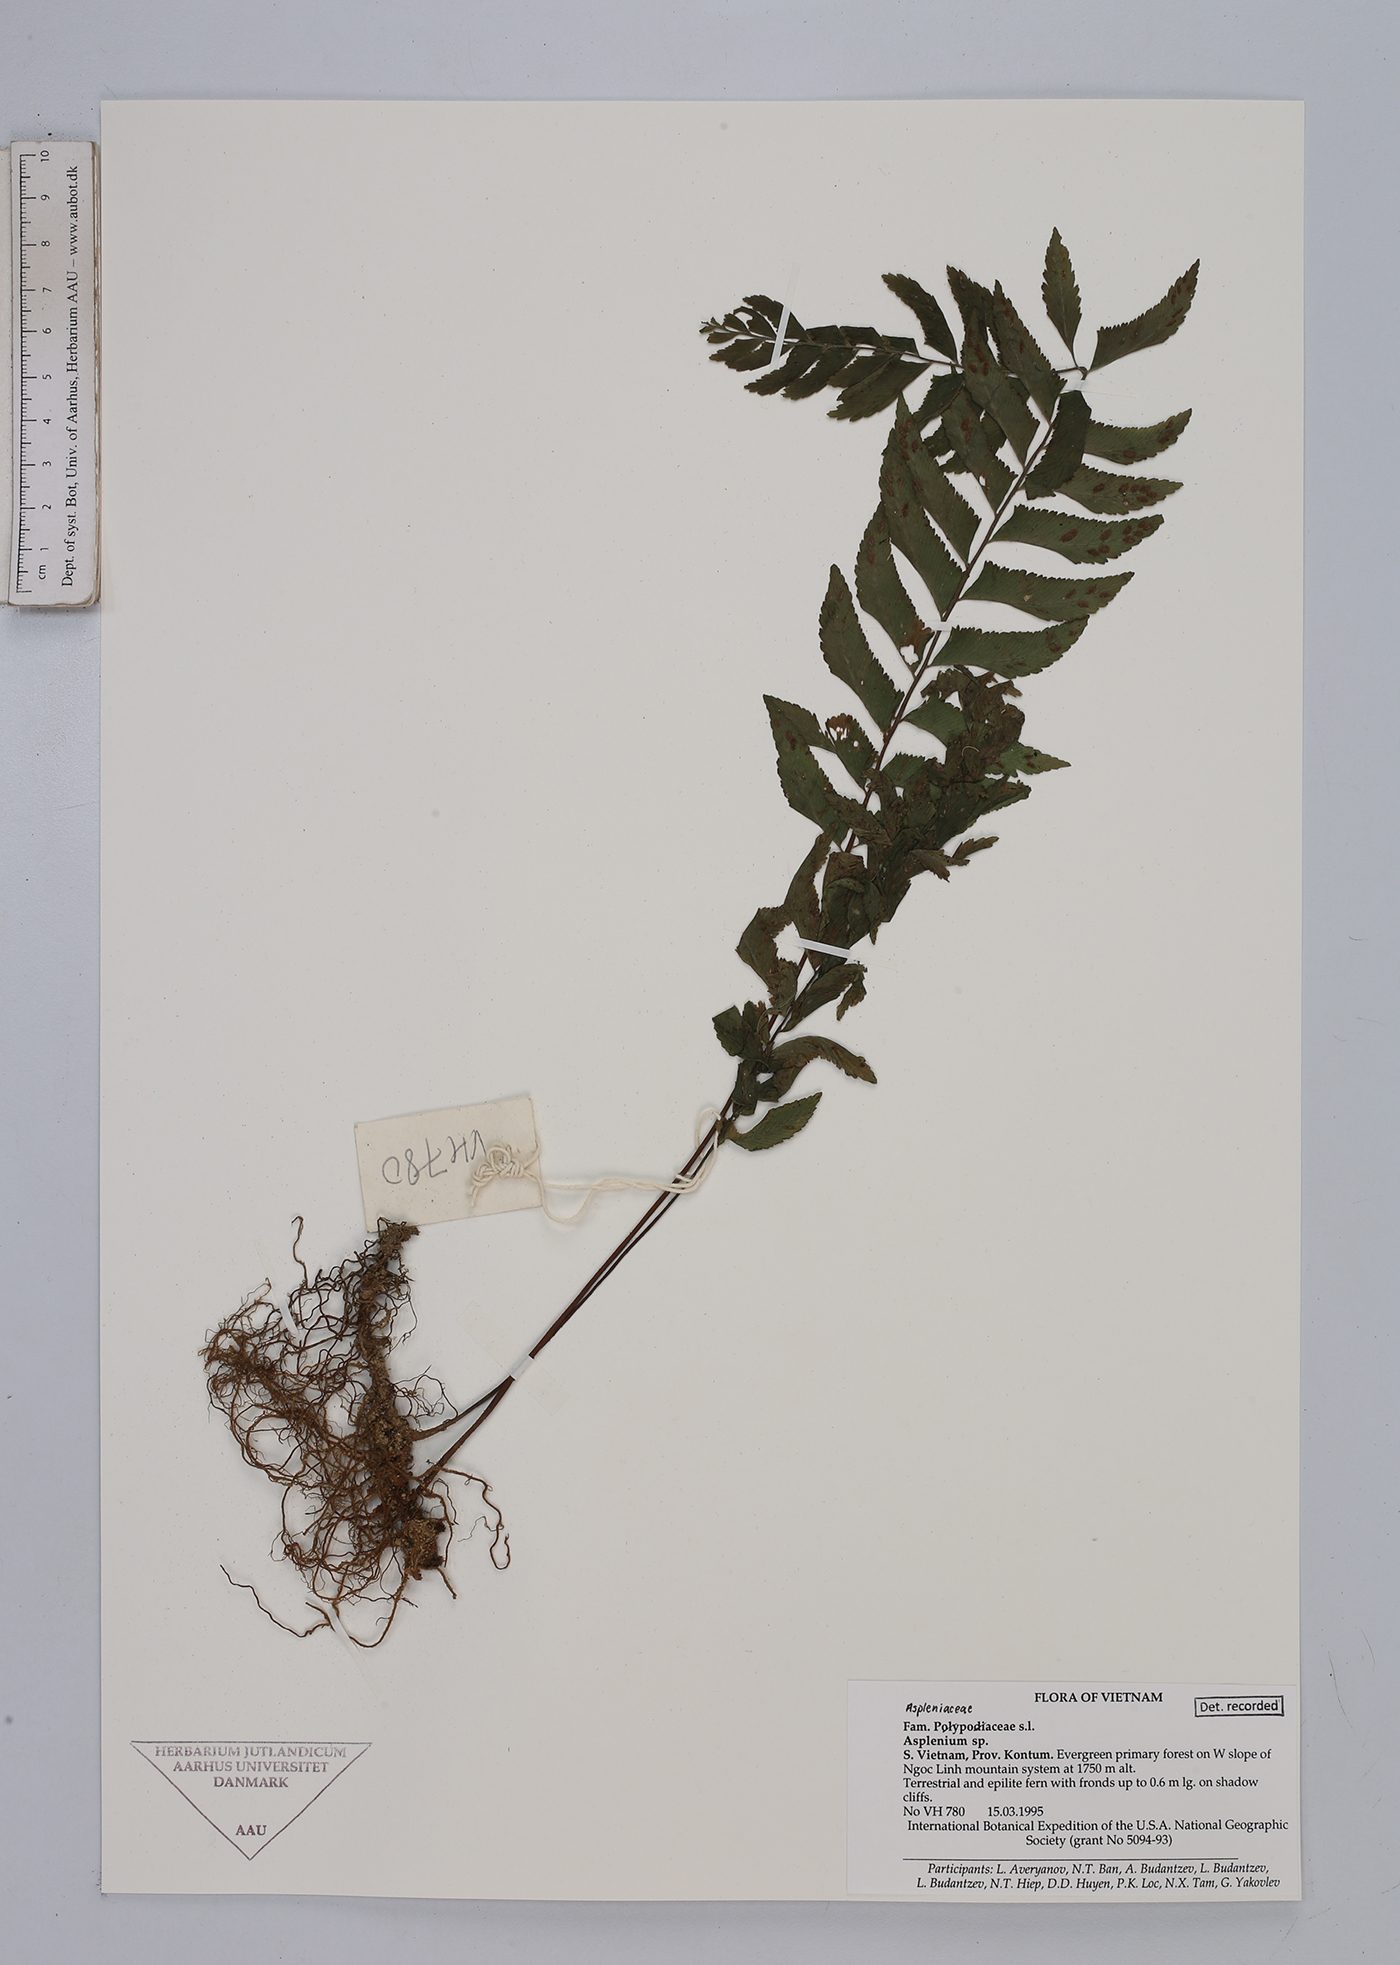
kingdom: Plantae
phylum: Tracheophyta
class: Polypodiopsida
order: Polypodiales
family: Aspleniaceae
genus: Asplenium
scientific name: Asplenium
